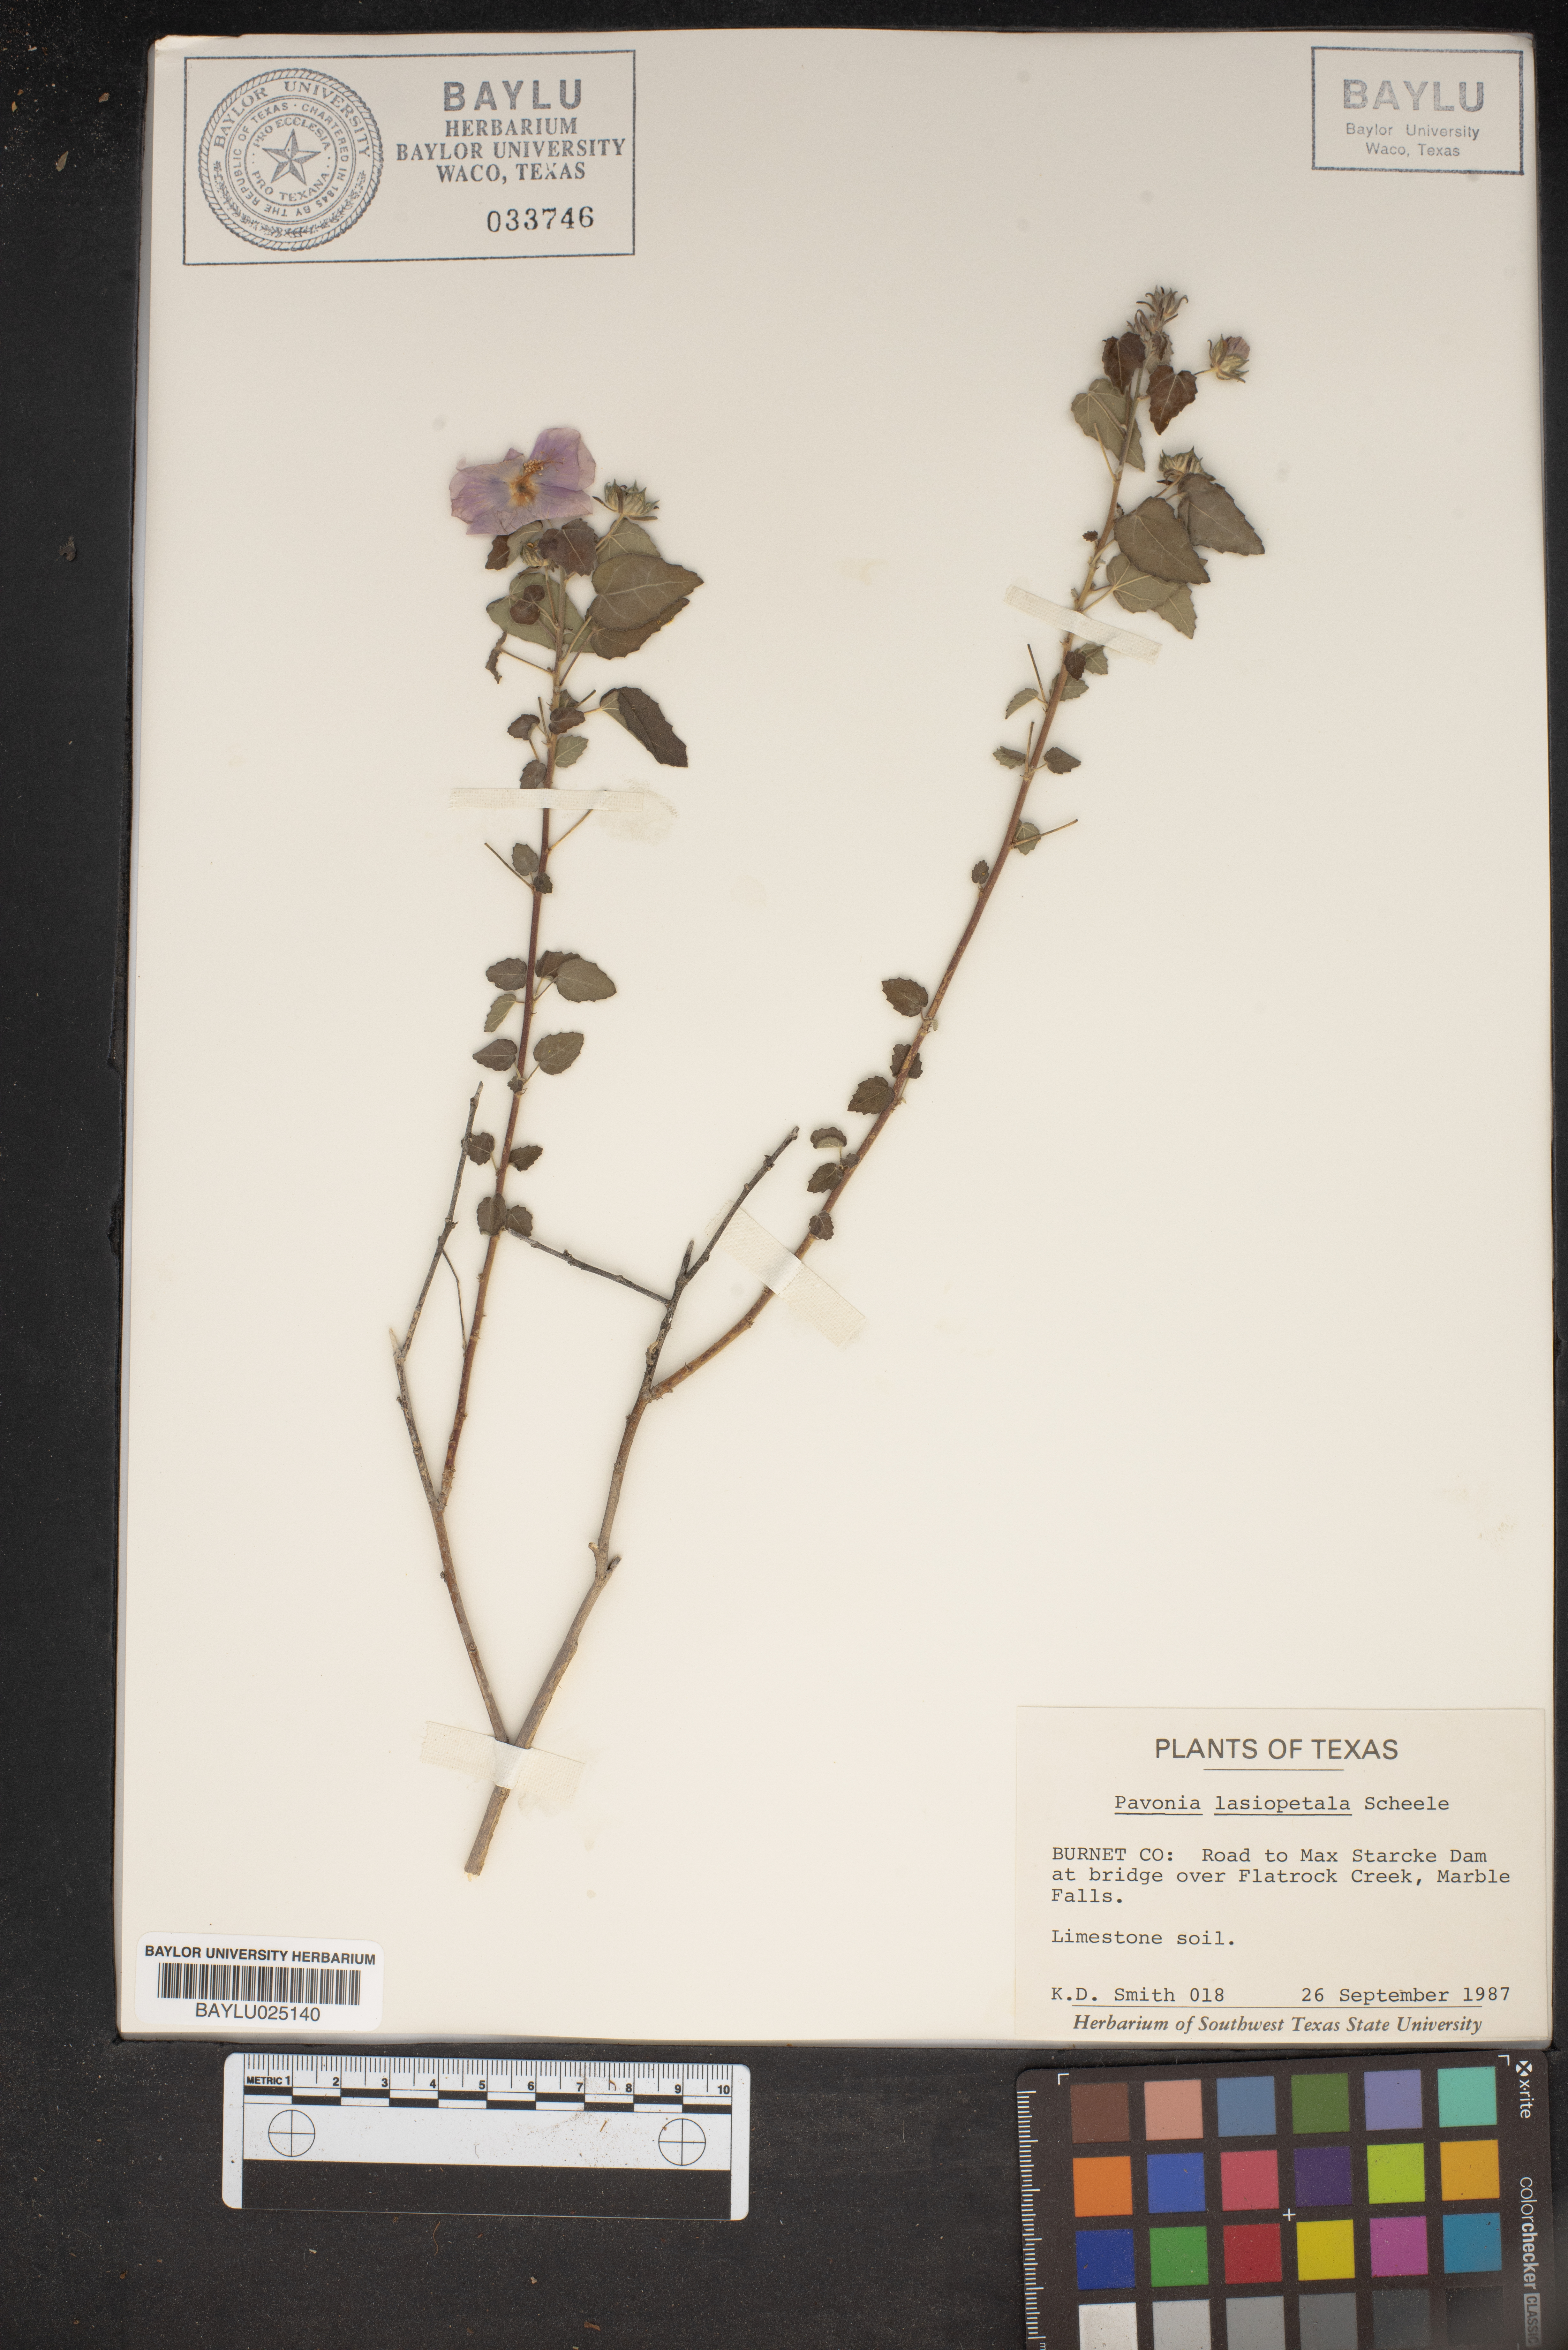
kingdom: Plantae
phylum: Tracheophyta
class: Magnoliopsida
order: Malvales
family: Malvaceae
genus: Pavonia
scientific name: Pavonia lasiopetala
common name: Texas swamp-mallow
